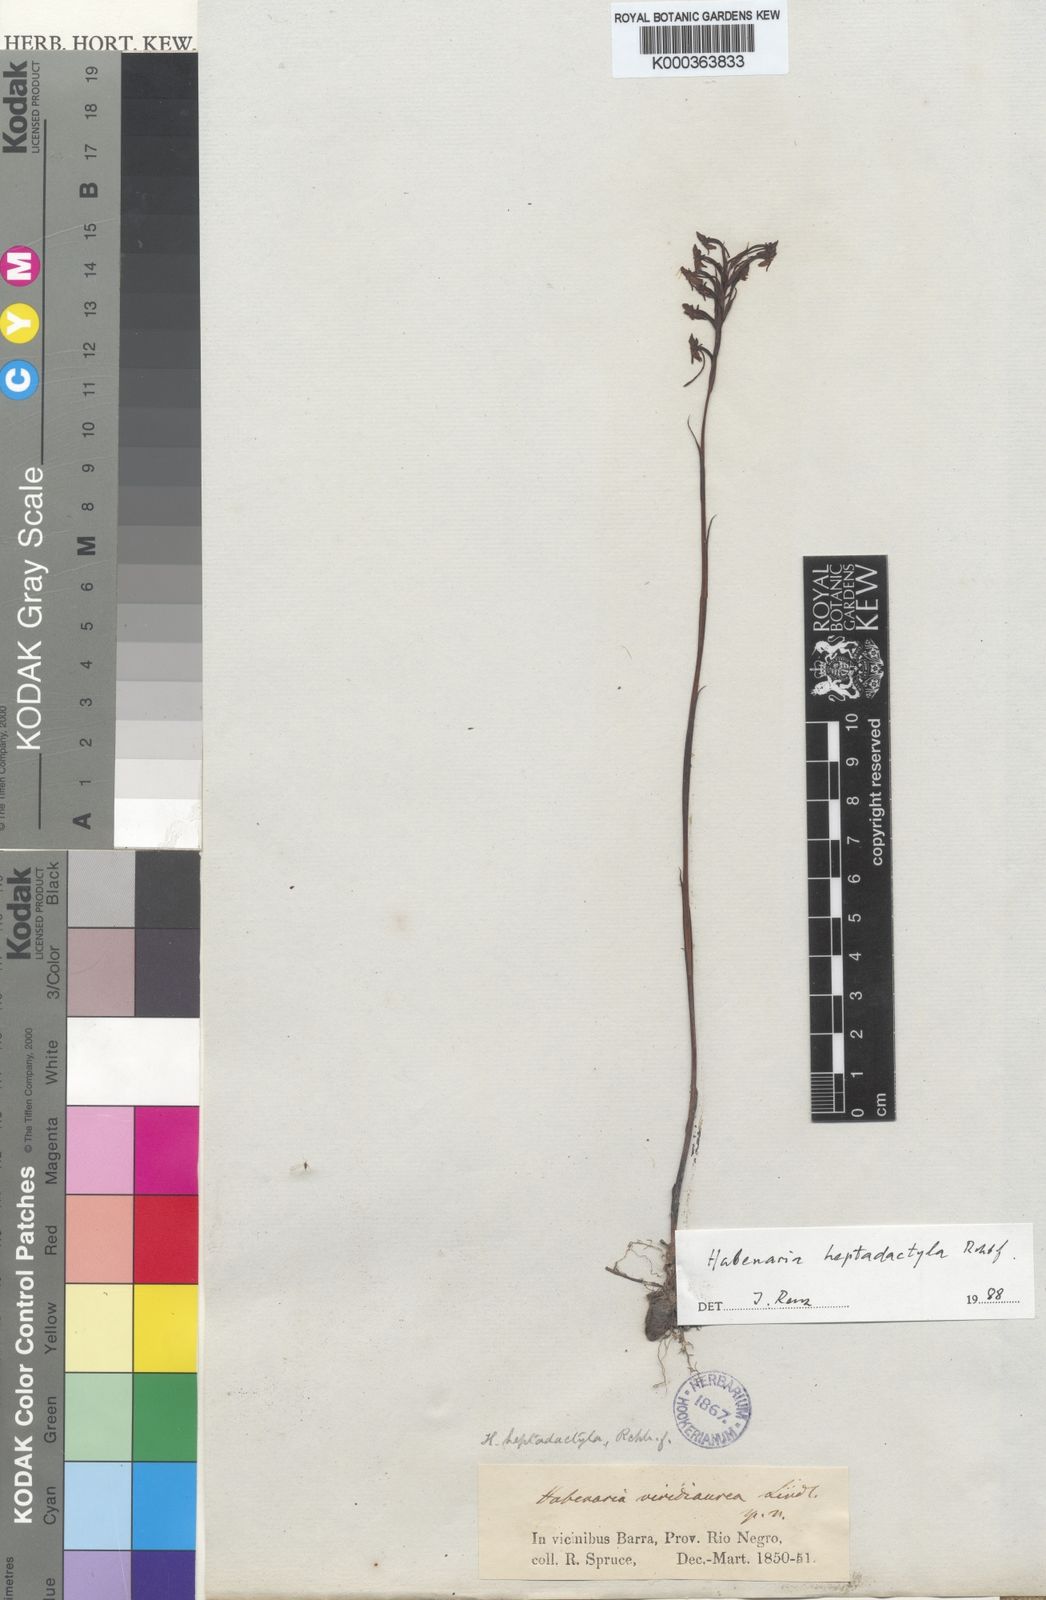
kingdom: Plantae
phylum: Tracheophyta
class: Liliopsida
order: Asparagales
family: Orchidaceae
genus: Habenaria
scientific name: Habenaria heptadactyla
